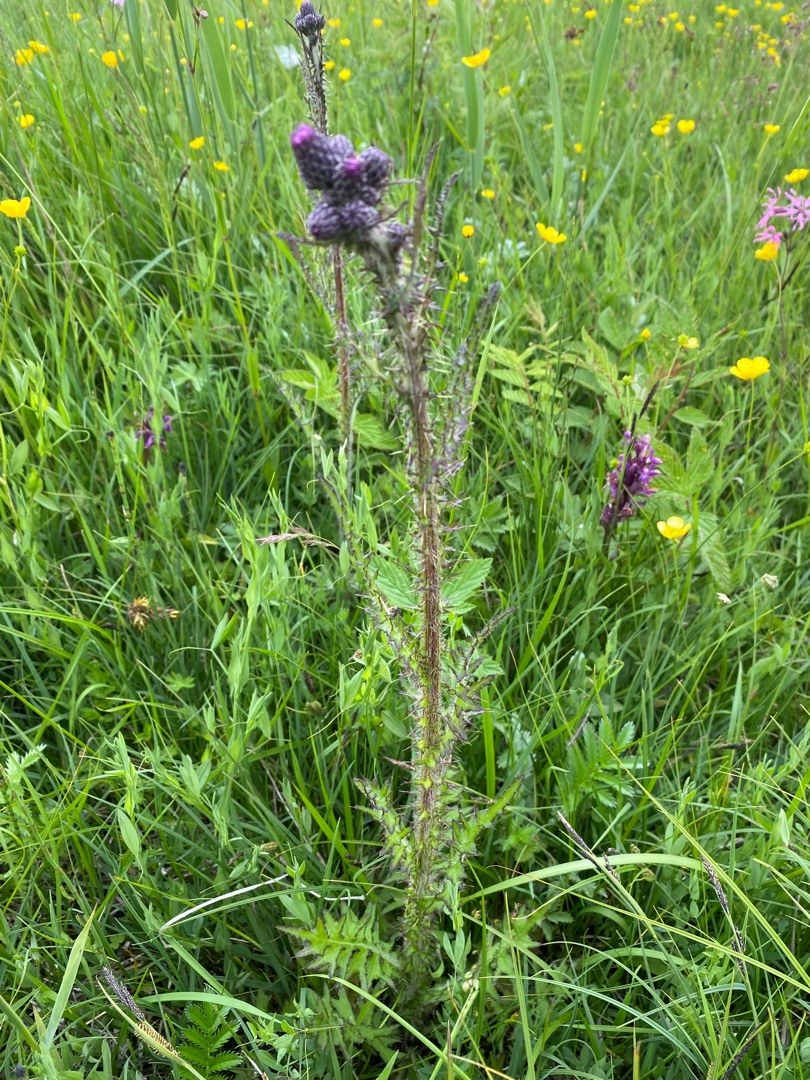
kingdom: Plantae
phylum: Tracheophyta
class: Magnoliopsida
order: Asterales
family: Asteraceae
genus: Cirsium
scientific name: Cirsium palustre
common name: Kær-tidsel
